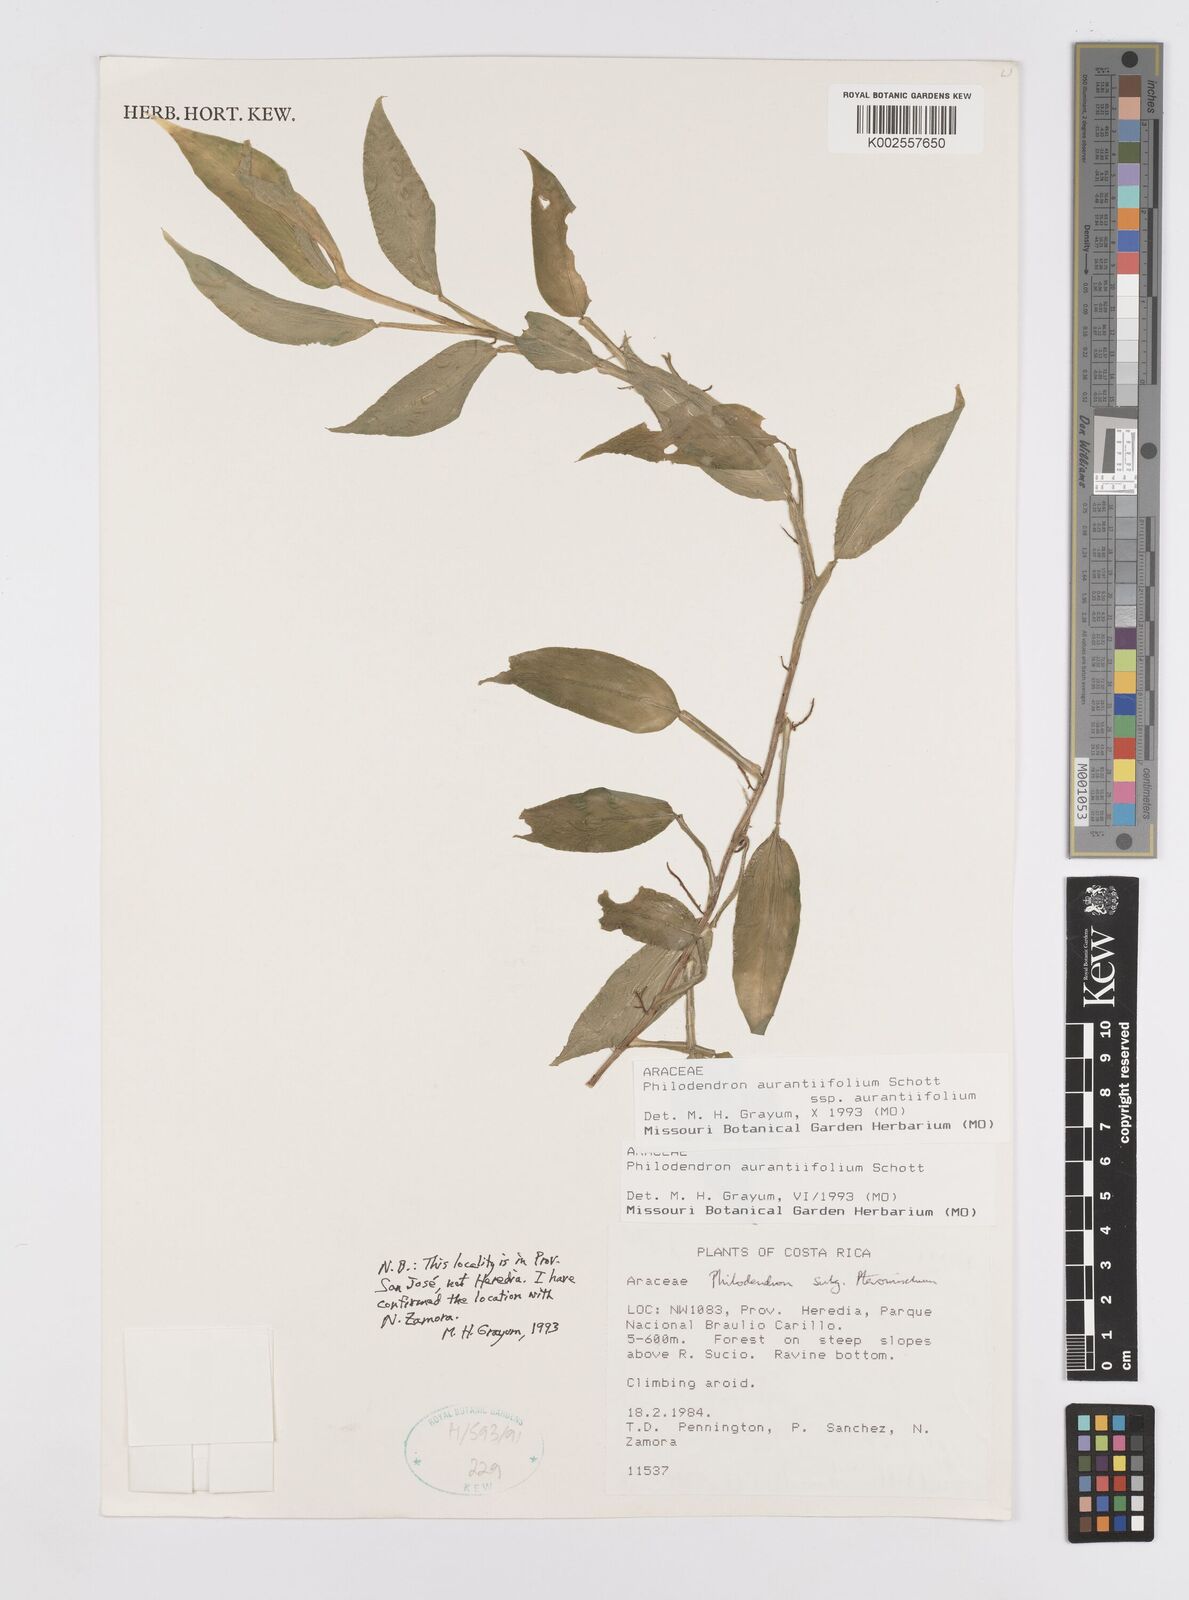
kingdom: Plantae
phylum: Tracheophyta
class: Liliopsida
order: Alismatales
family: Araceae
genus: Philodendron
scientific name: Philodendron aurantiifolium
